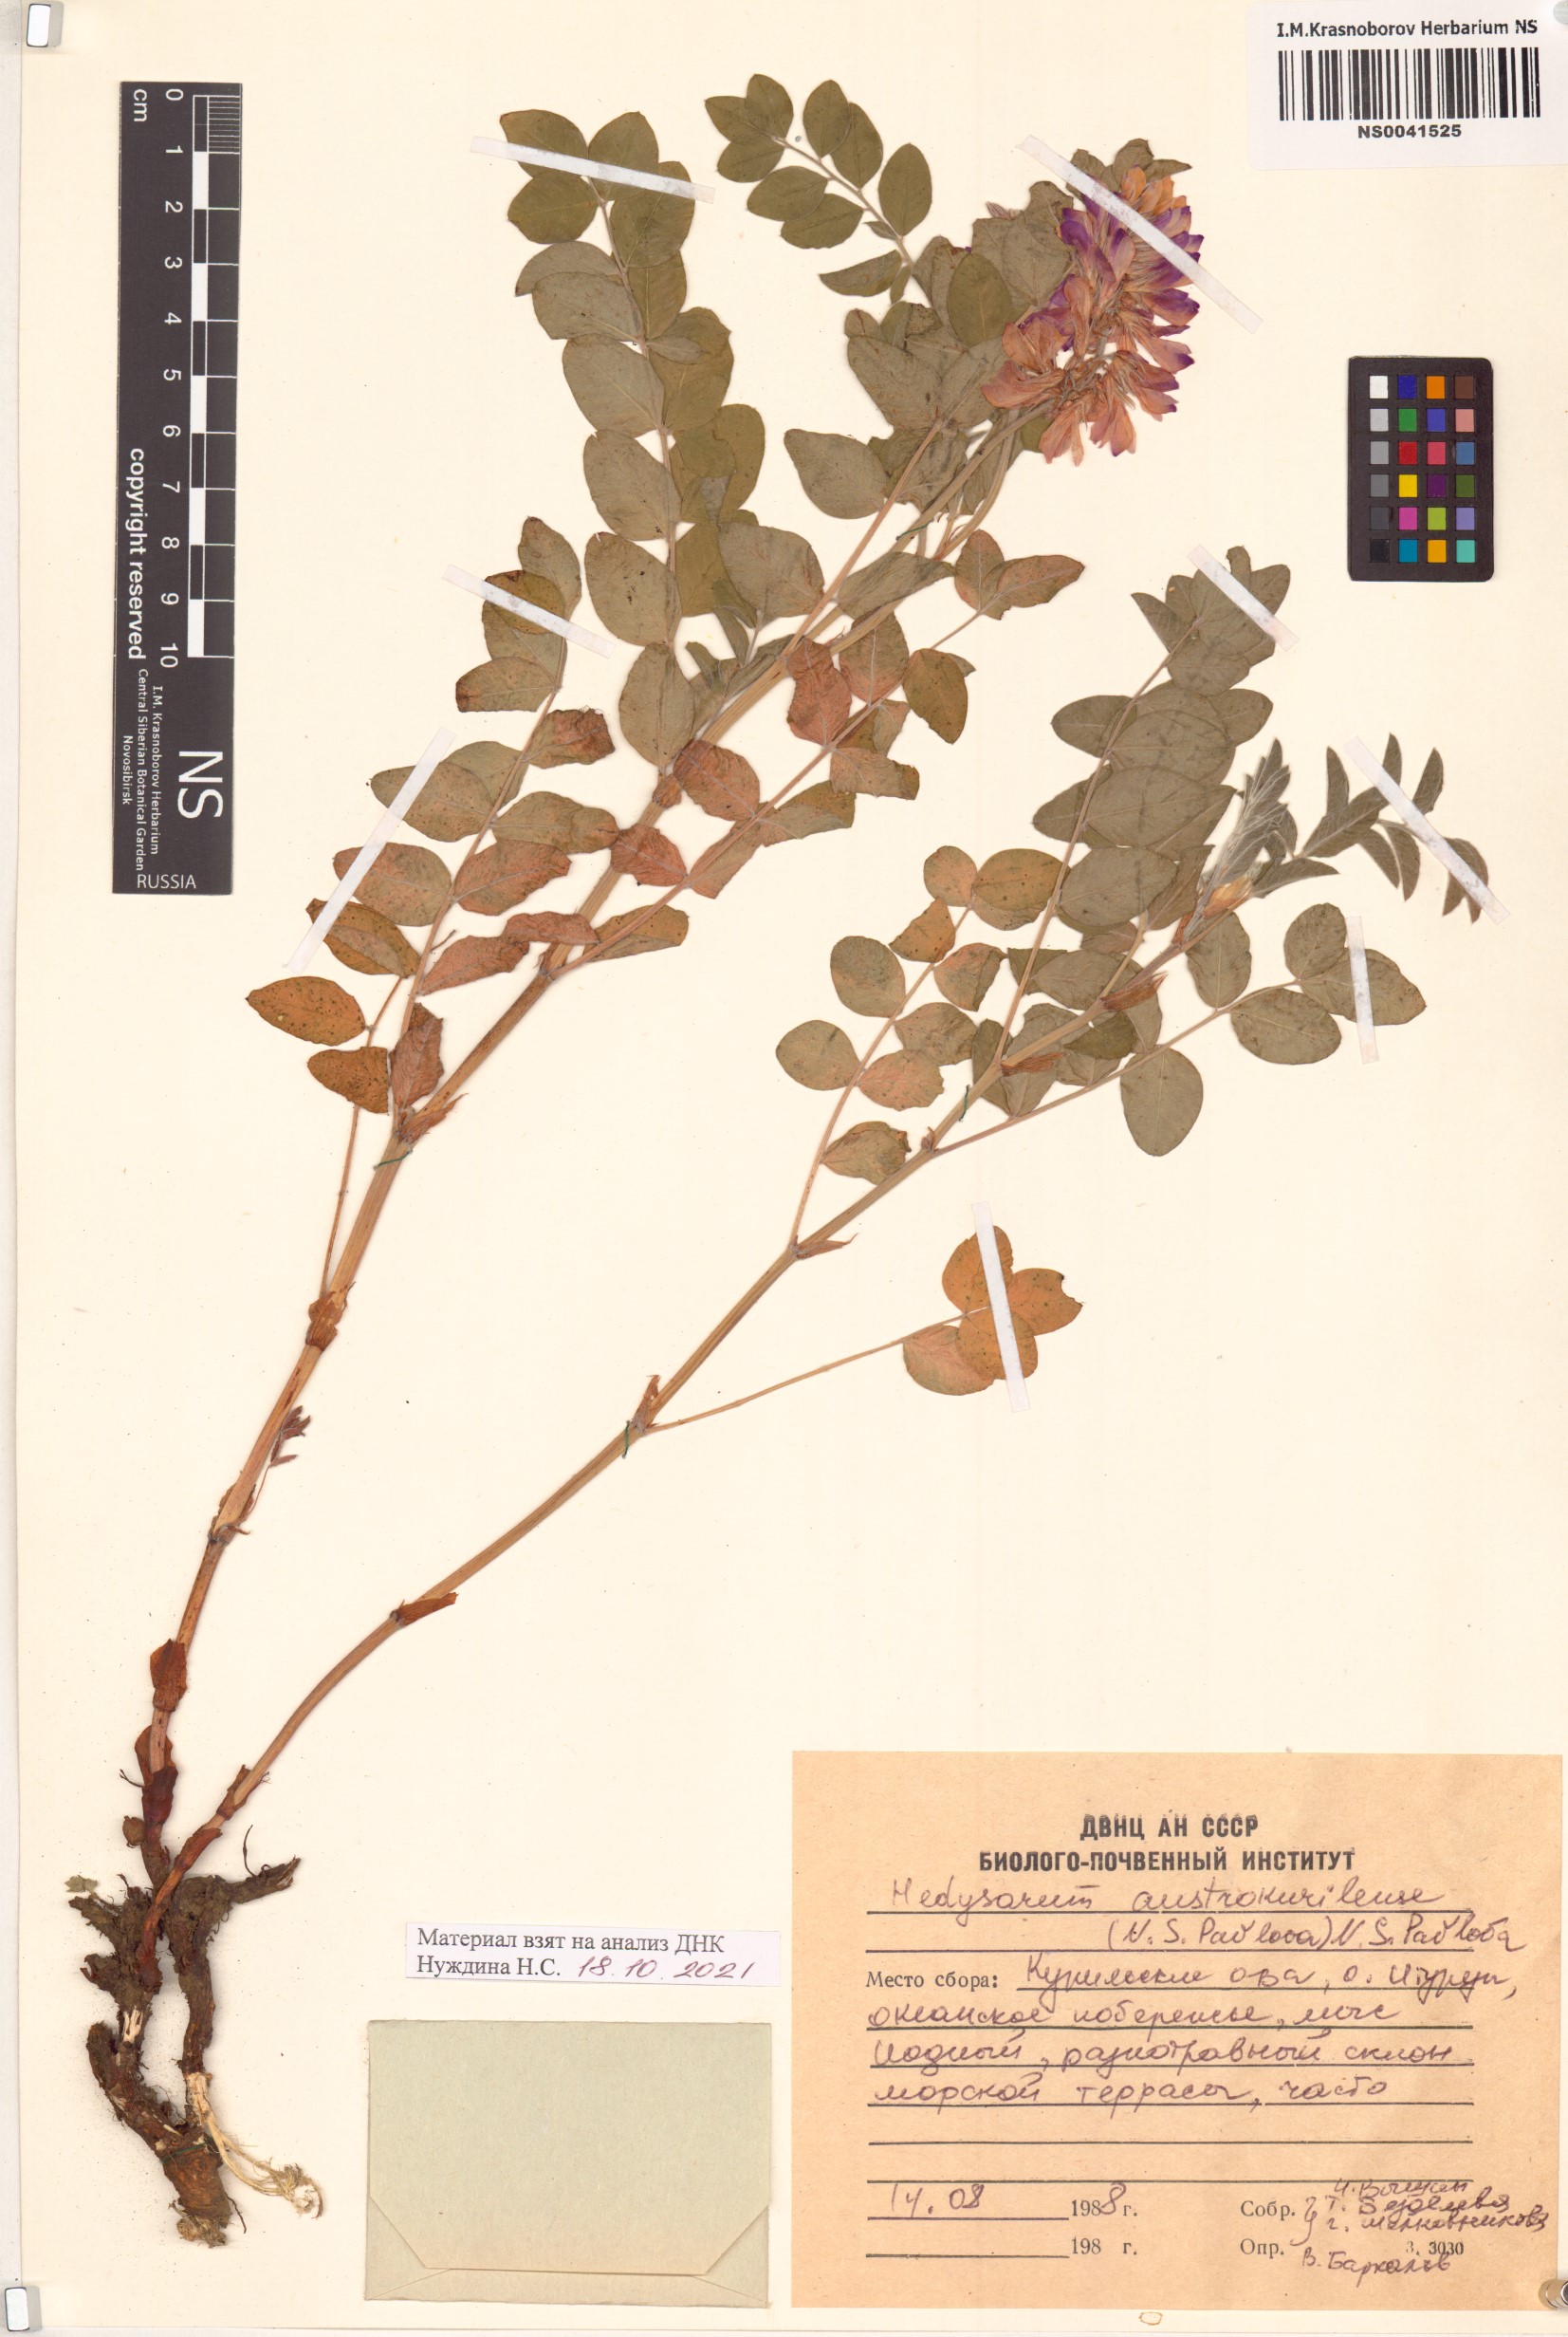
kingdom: Plantae
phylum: Tracheophyta
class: Magnoliopsida
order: Fabales
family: Fabaceae
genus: Hedysarum
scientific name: Hedysarum austrokurilense
